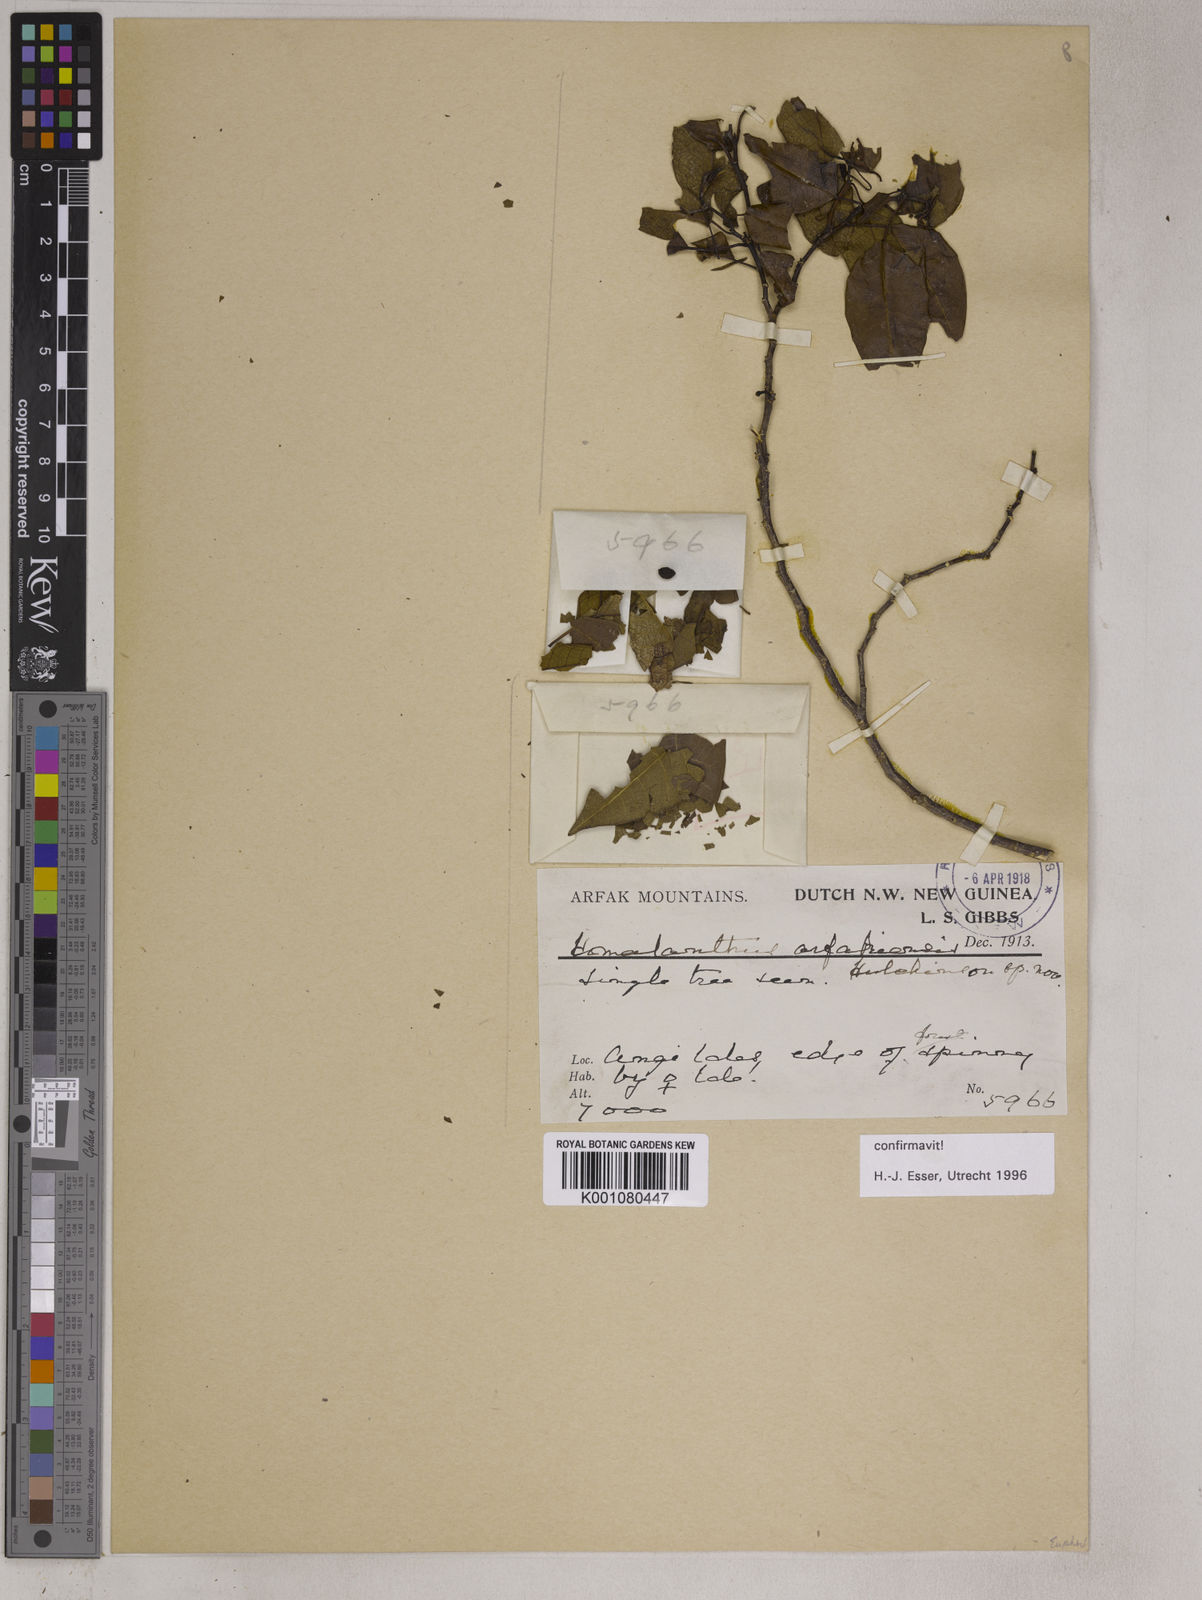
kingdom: Plantae
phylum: Tracheophyta
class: Magnoliopsida
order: Malpighiales
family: Euphorbiaceae
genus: Homalanthus
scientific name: Homalanthus arfakiensis
